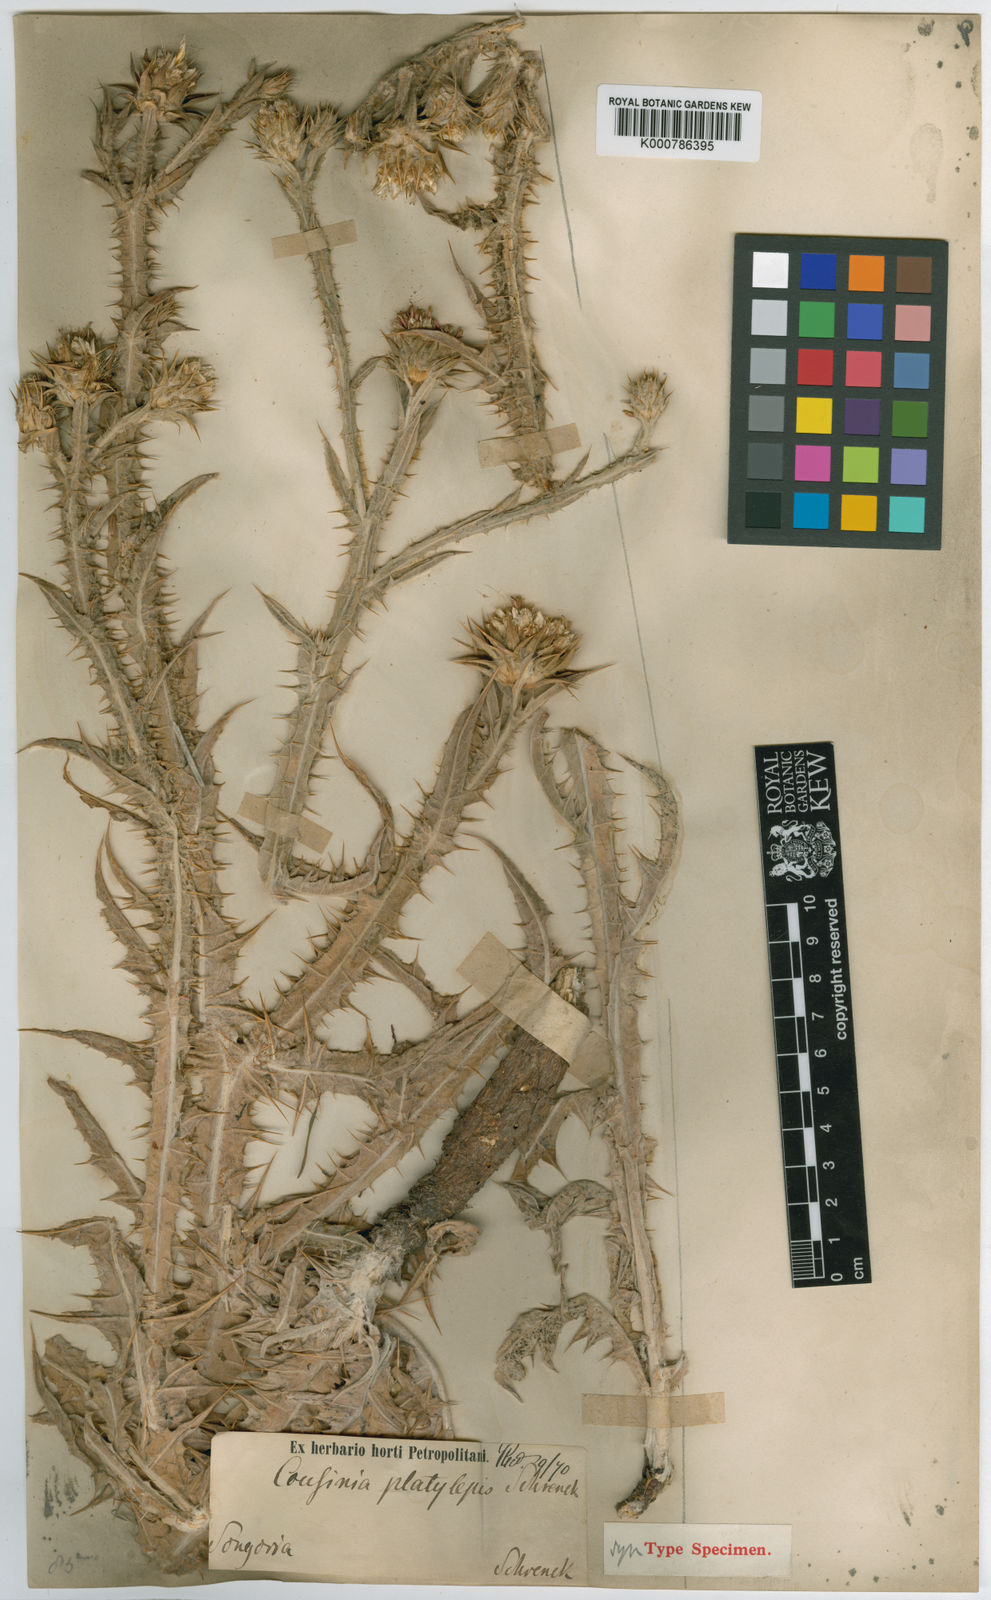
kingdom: Plantae
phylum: Tracheophyta
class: Magnoliopsida
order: Asterales
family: Asteraceae
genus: Cousinia
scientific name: Cousinia
